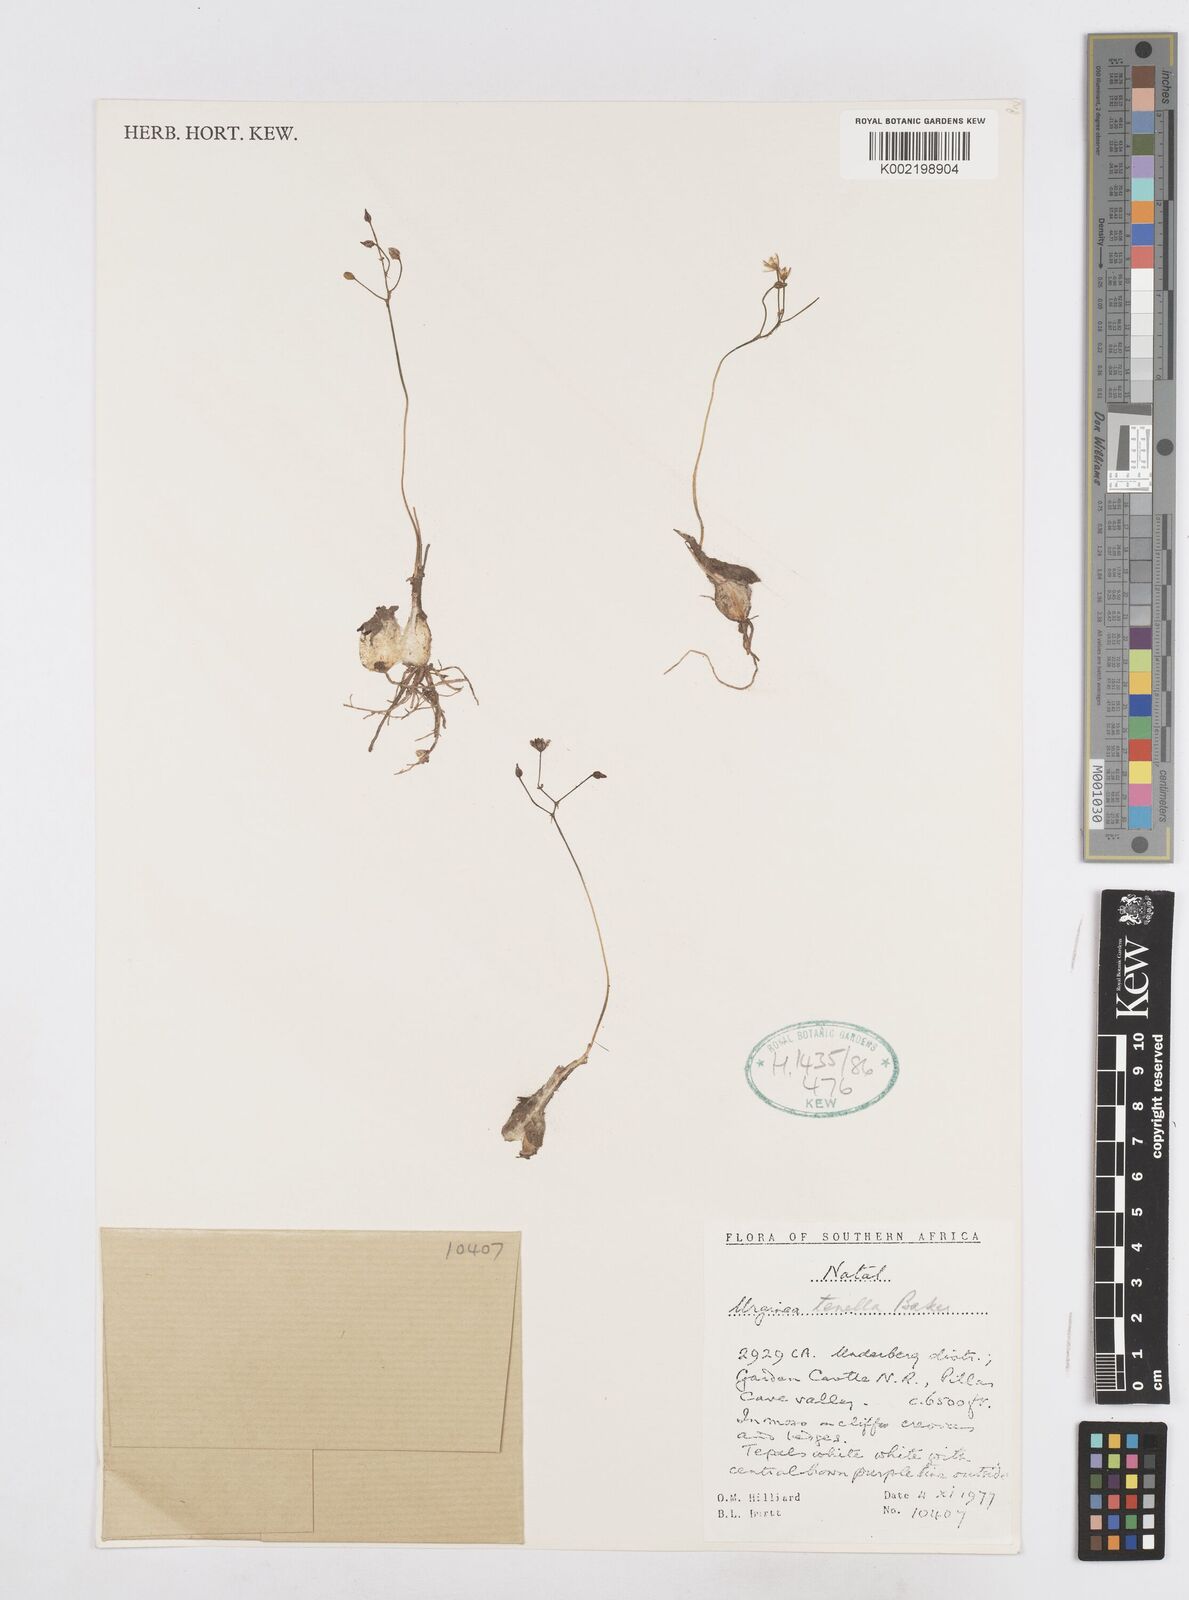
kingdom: Plantae
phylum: Tracheophyta
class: Liliopsida
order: Asparagales
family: Asparagaceae
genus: Drimia
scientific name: Drimia
